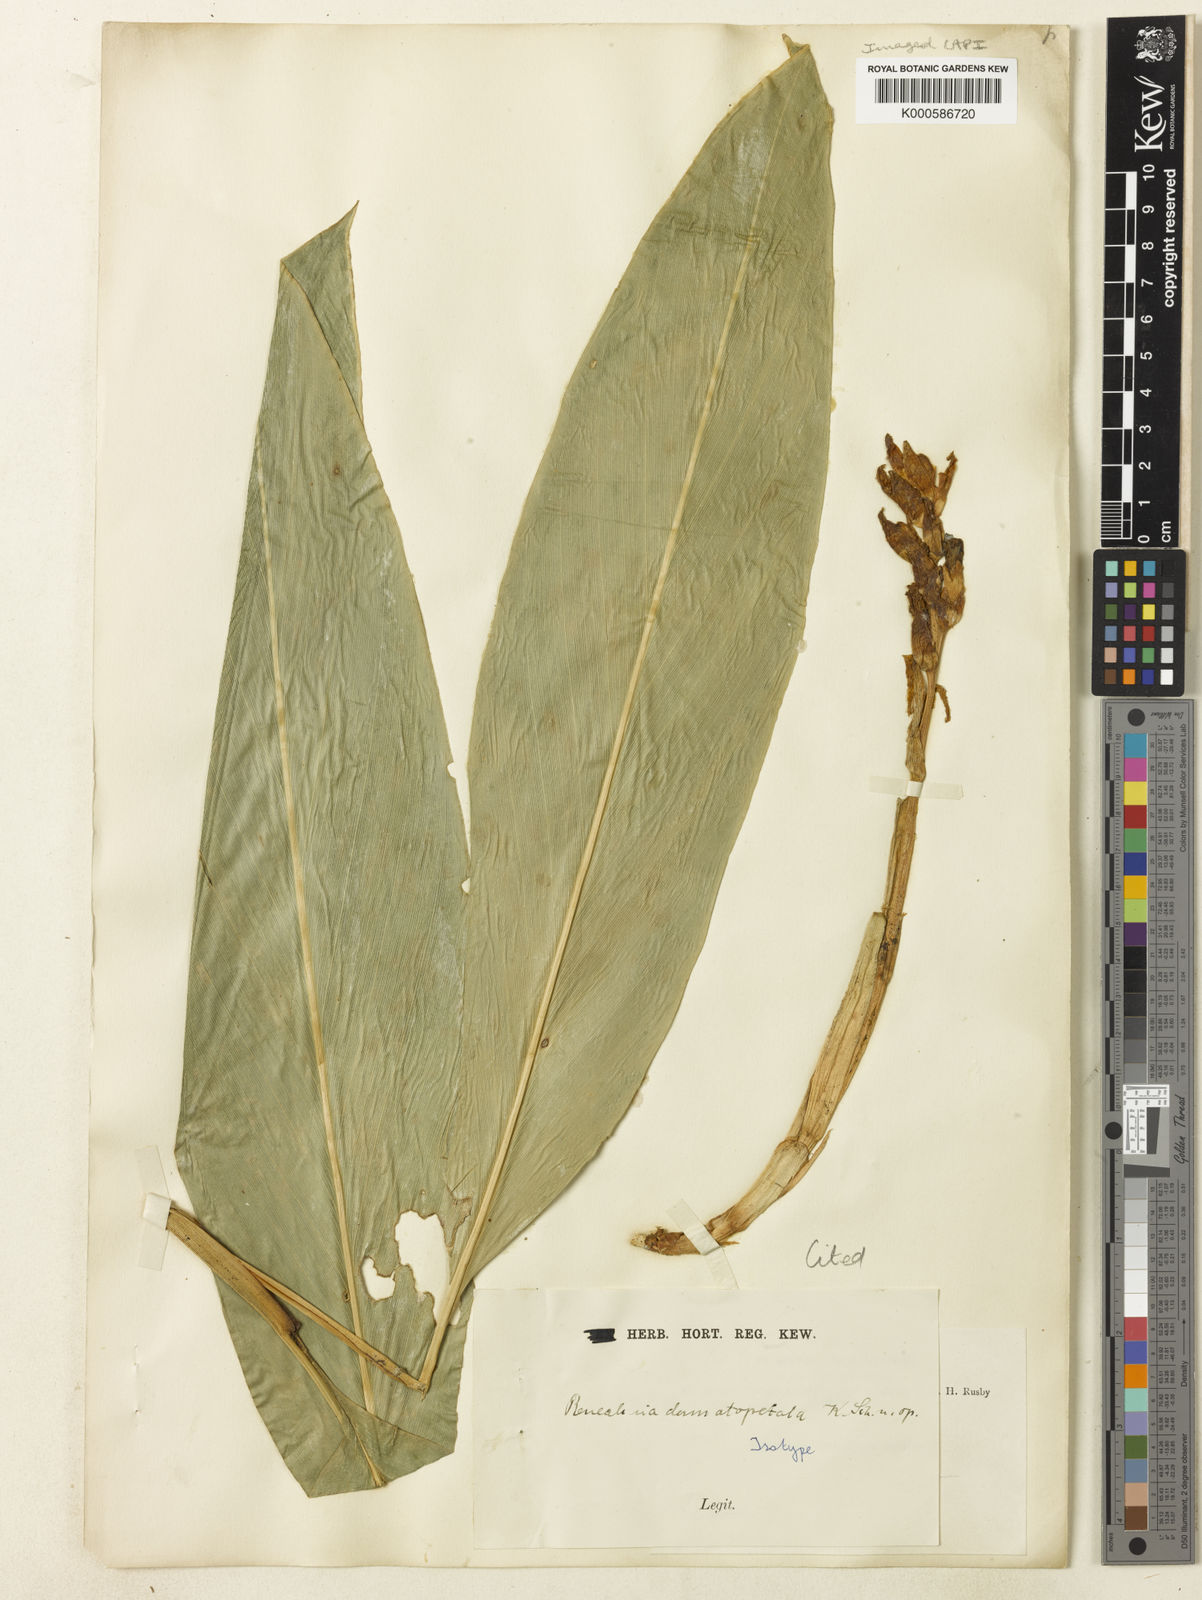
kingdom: Plantae
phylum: Tracheophyta
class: Liliopsida
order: Zingiberales
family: Zingiberaceae
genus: Renealmia
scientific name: Renealmia dermatopetala
